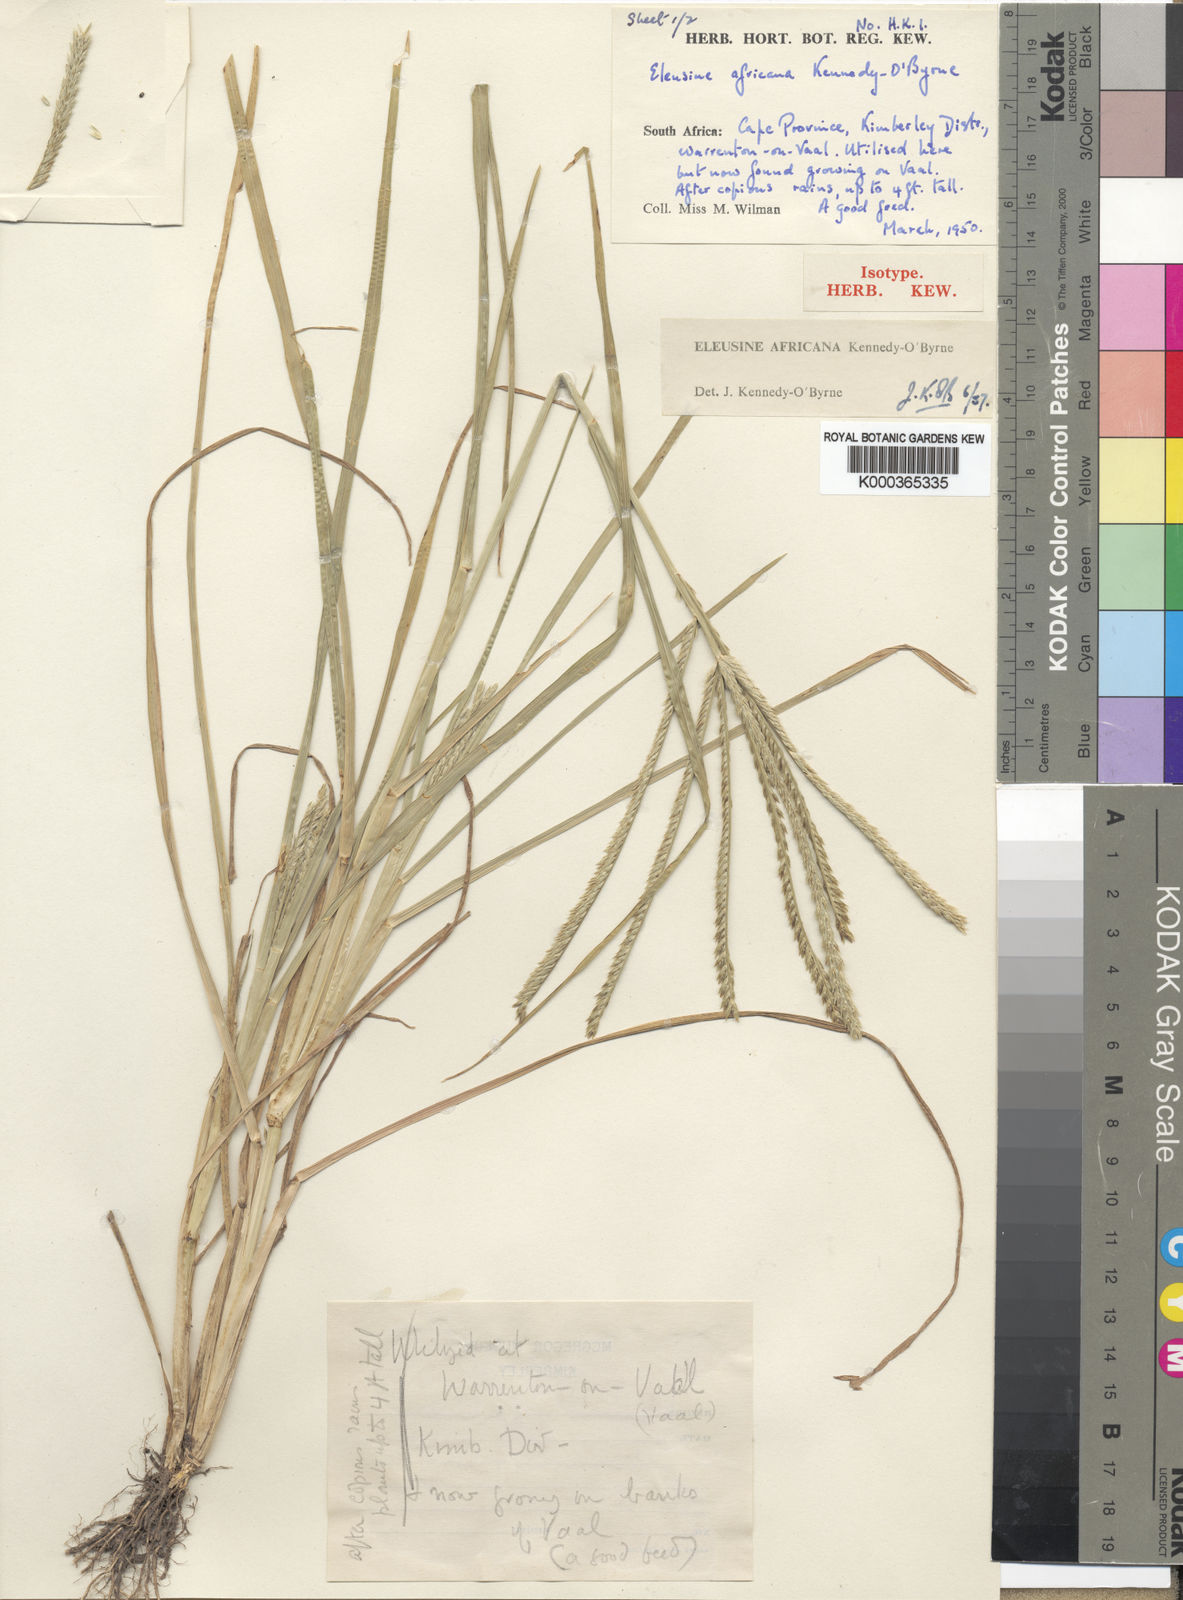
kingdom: Plantae
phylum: Tracheophyta
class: Liliopsida
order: Poales
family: Poaceae
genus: Eleusine
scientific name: Eleusine africana
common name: Wild african finger millet
